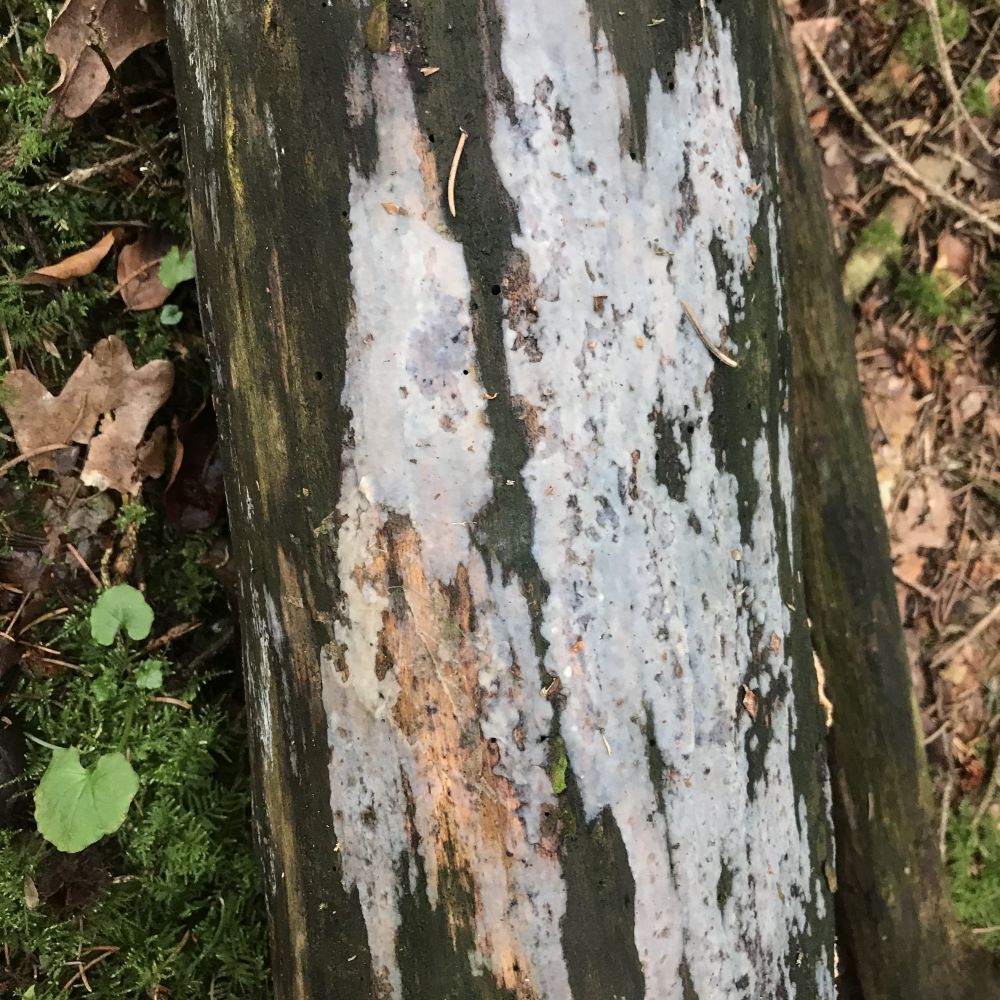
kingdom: Fungi
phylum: Basidiomycota
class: Tremellomycetes
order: Tremellales
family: Exidiaceae
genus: Exidiopsis
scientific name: Exidiopsis
